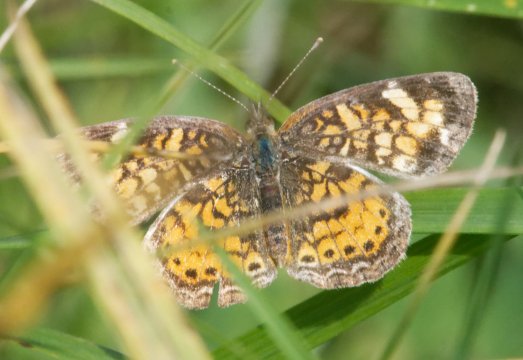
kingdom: Animalia
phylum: Arthropoda
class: Insecta
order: Lepidoptera
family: Nymphalidae
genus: Phyciodes
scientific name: Phyciodes
